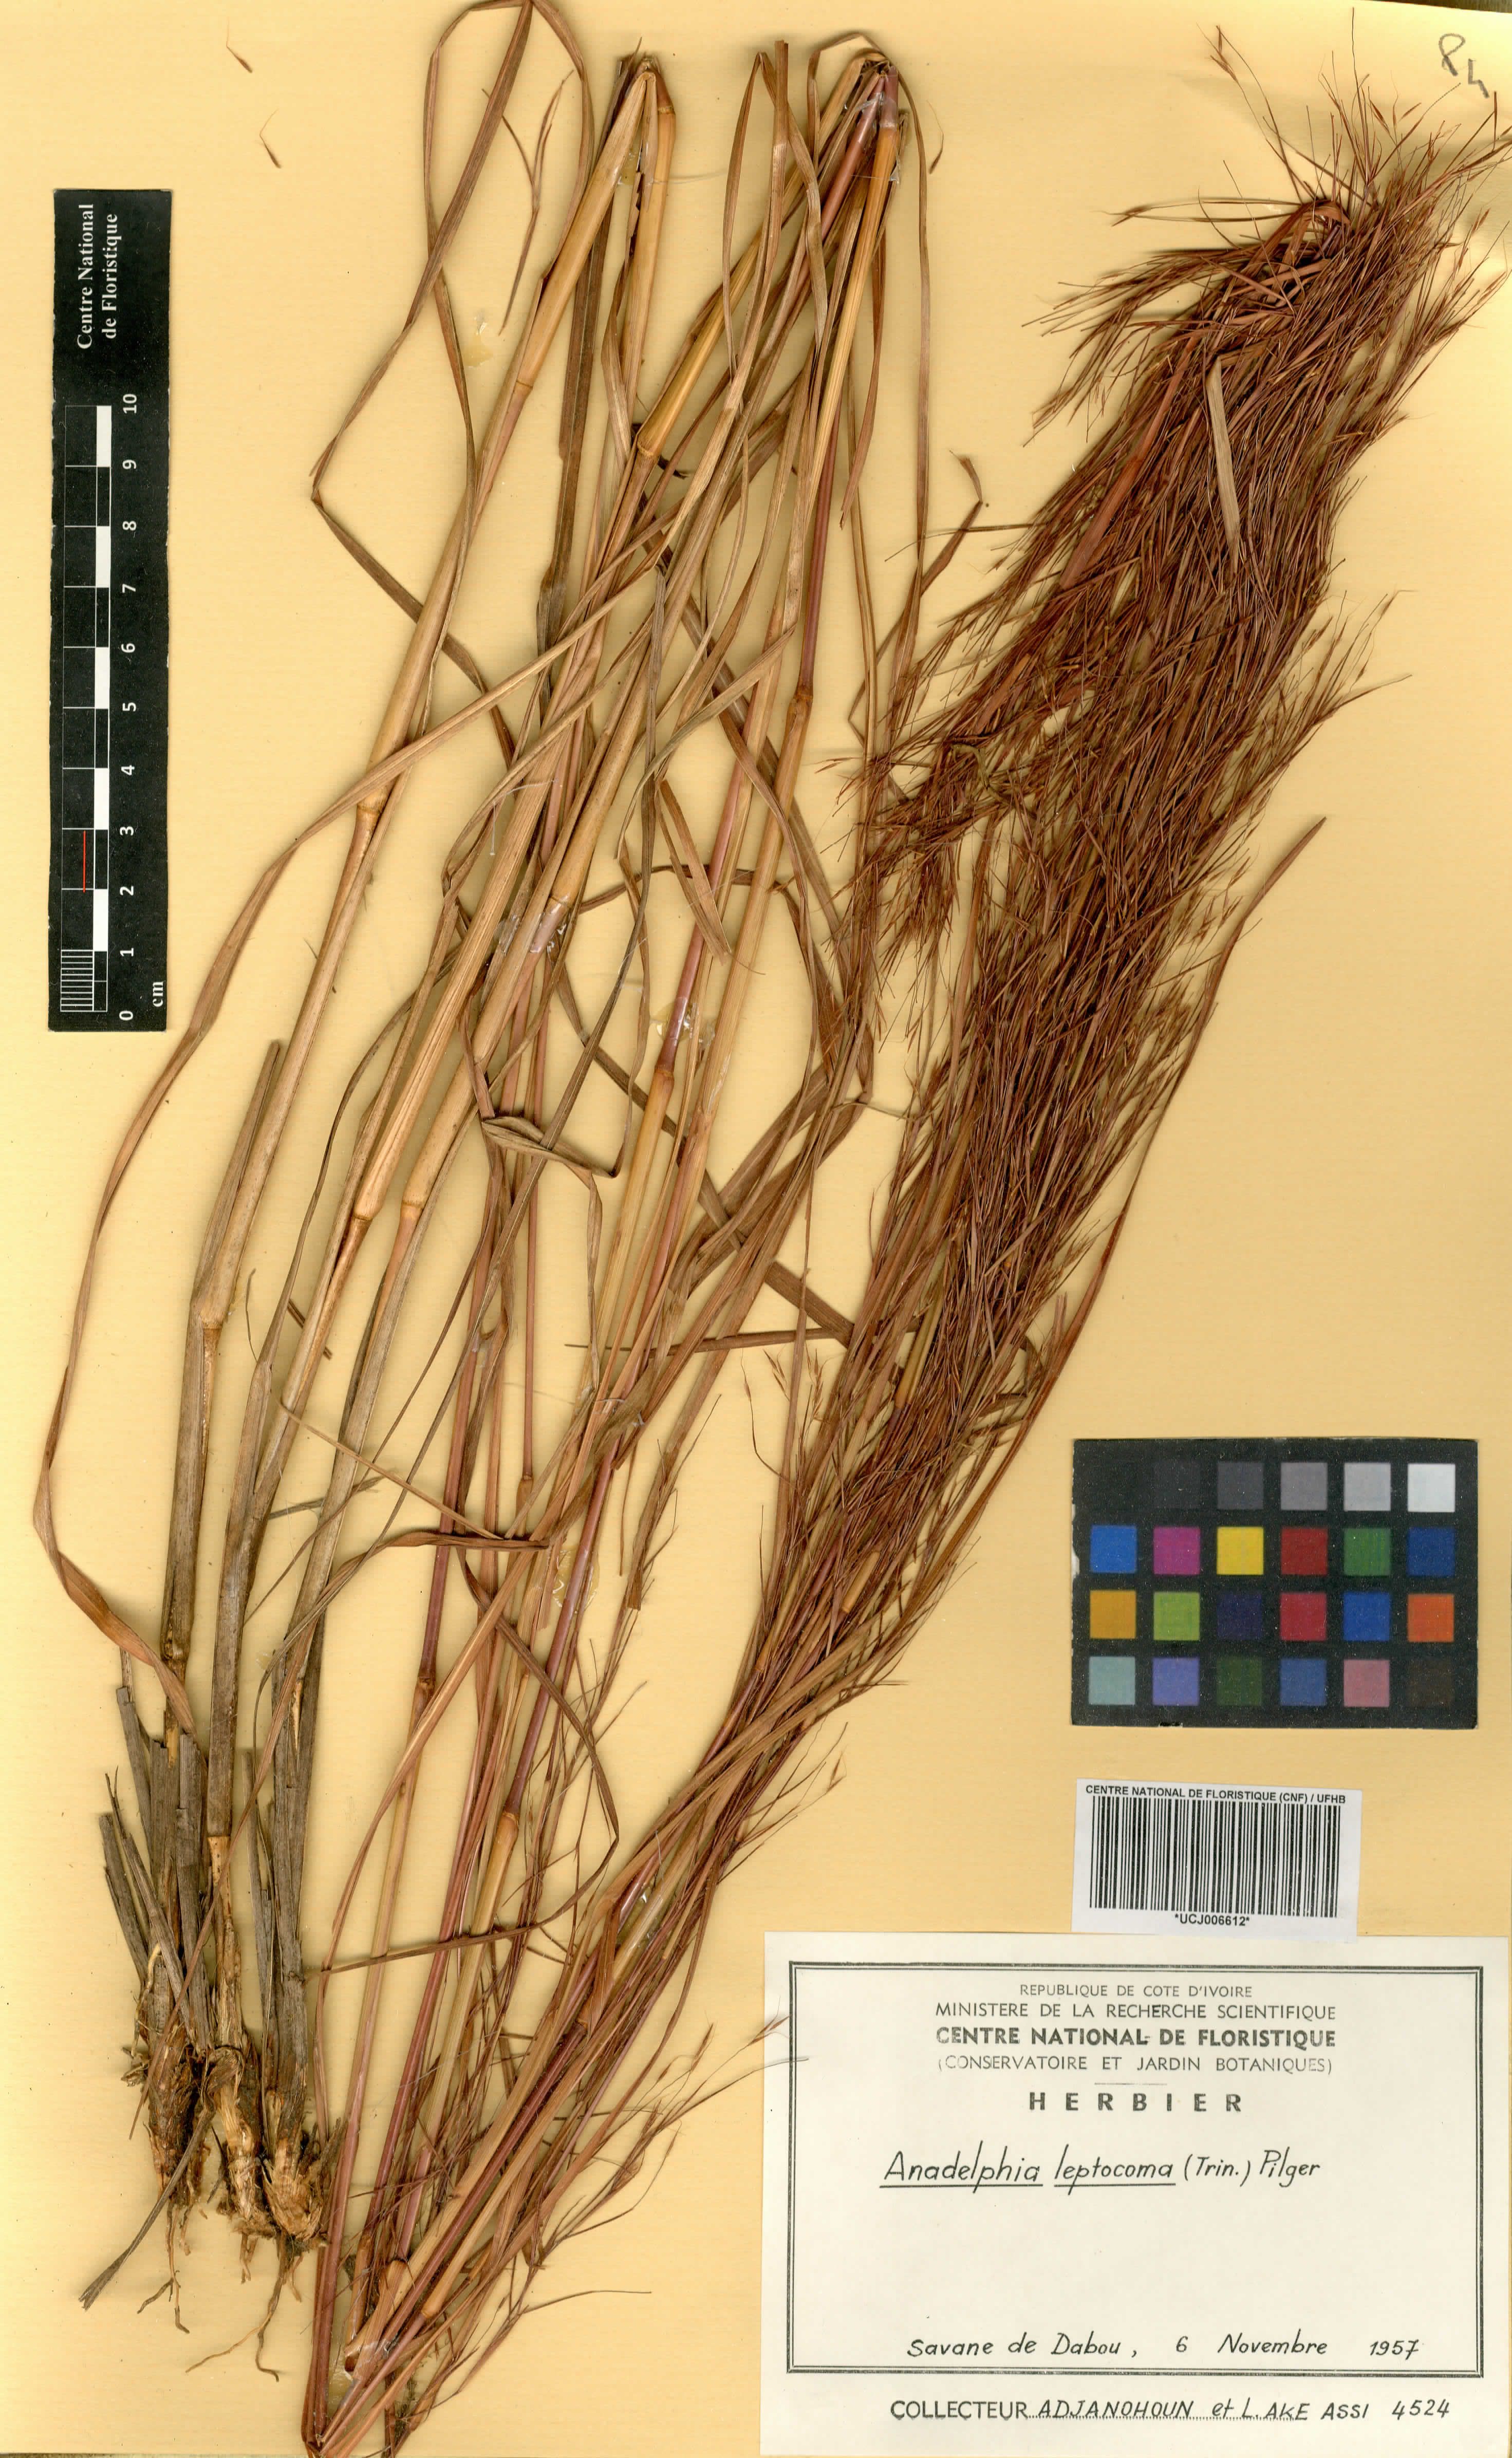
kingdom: Plantae
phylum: Tracheophyta
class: Liliopsida
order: Poales
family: Poaceae
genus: Anadelphia
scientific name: Anadelphia leptocoma
